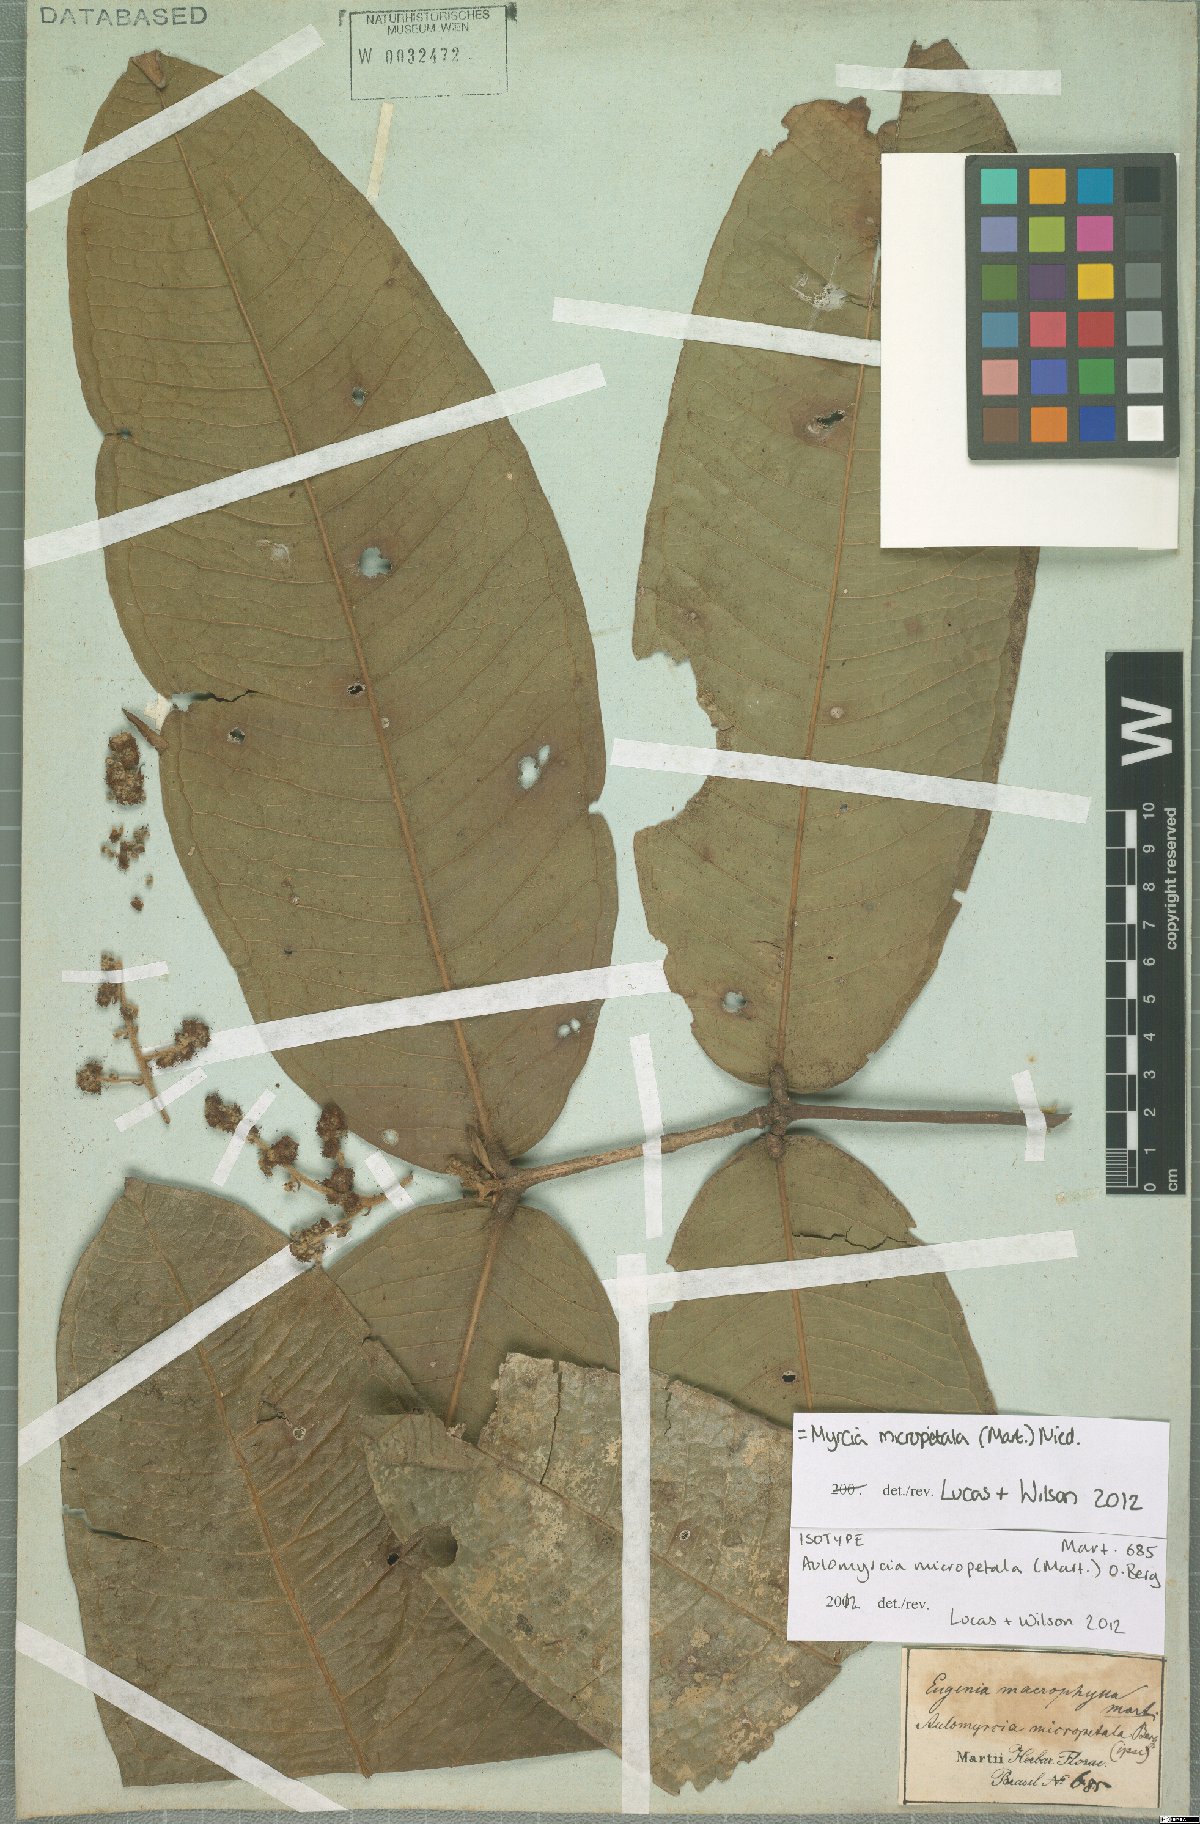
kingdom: Plantae
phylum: Tracheophyta
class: Magnoliopsida
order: Myrtales
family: Myrtaceae
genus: Myrcia
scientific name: Myrcia micropetala
